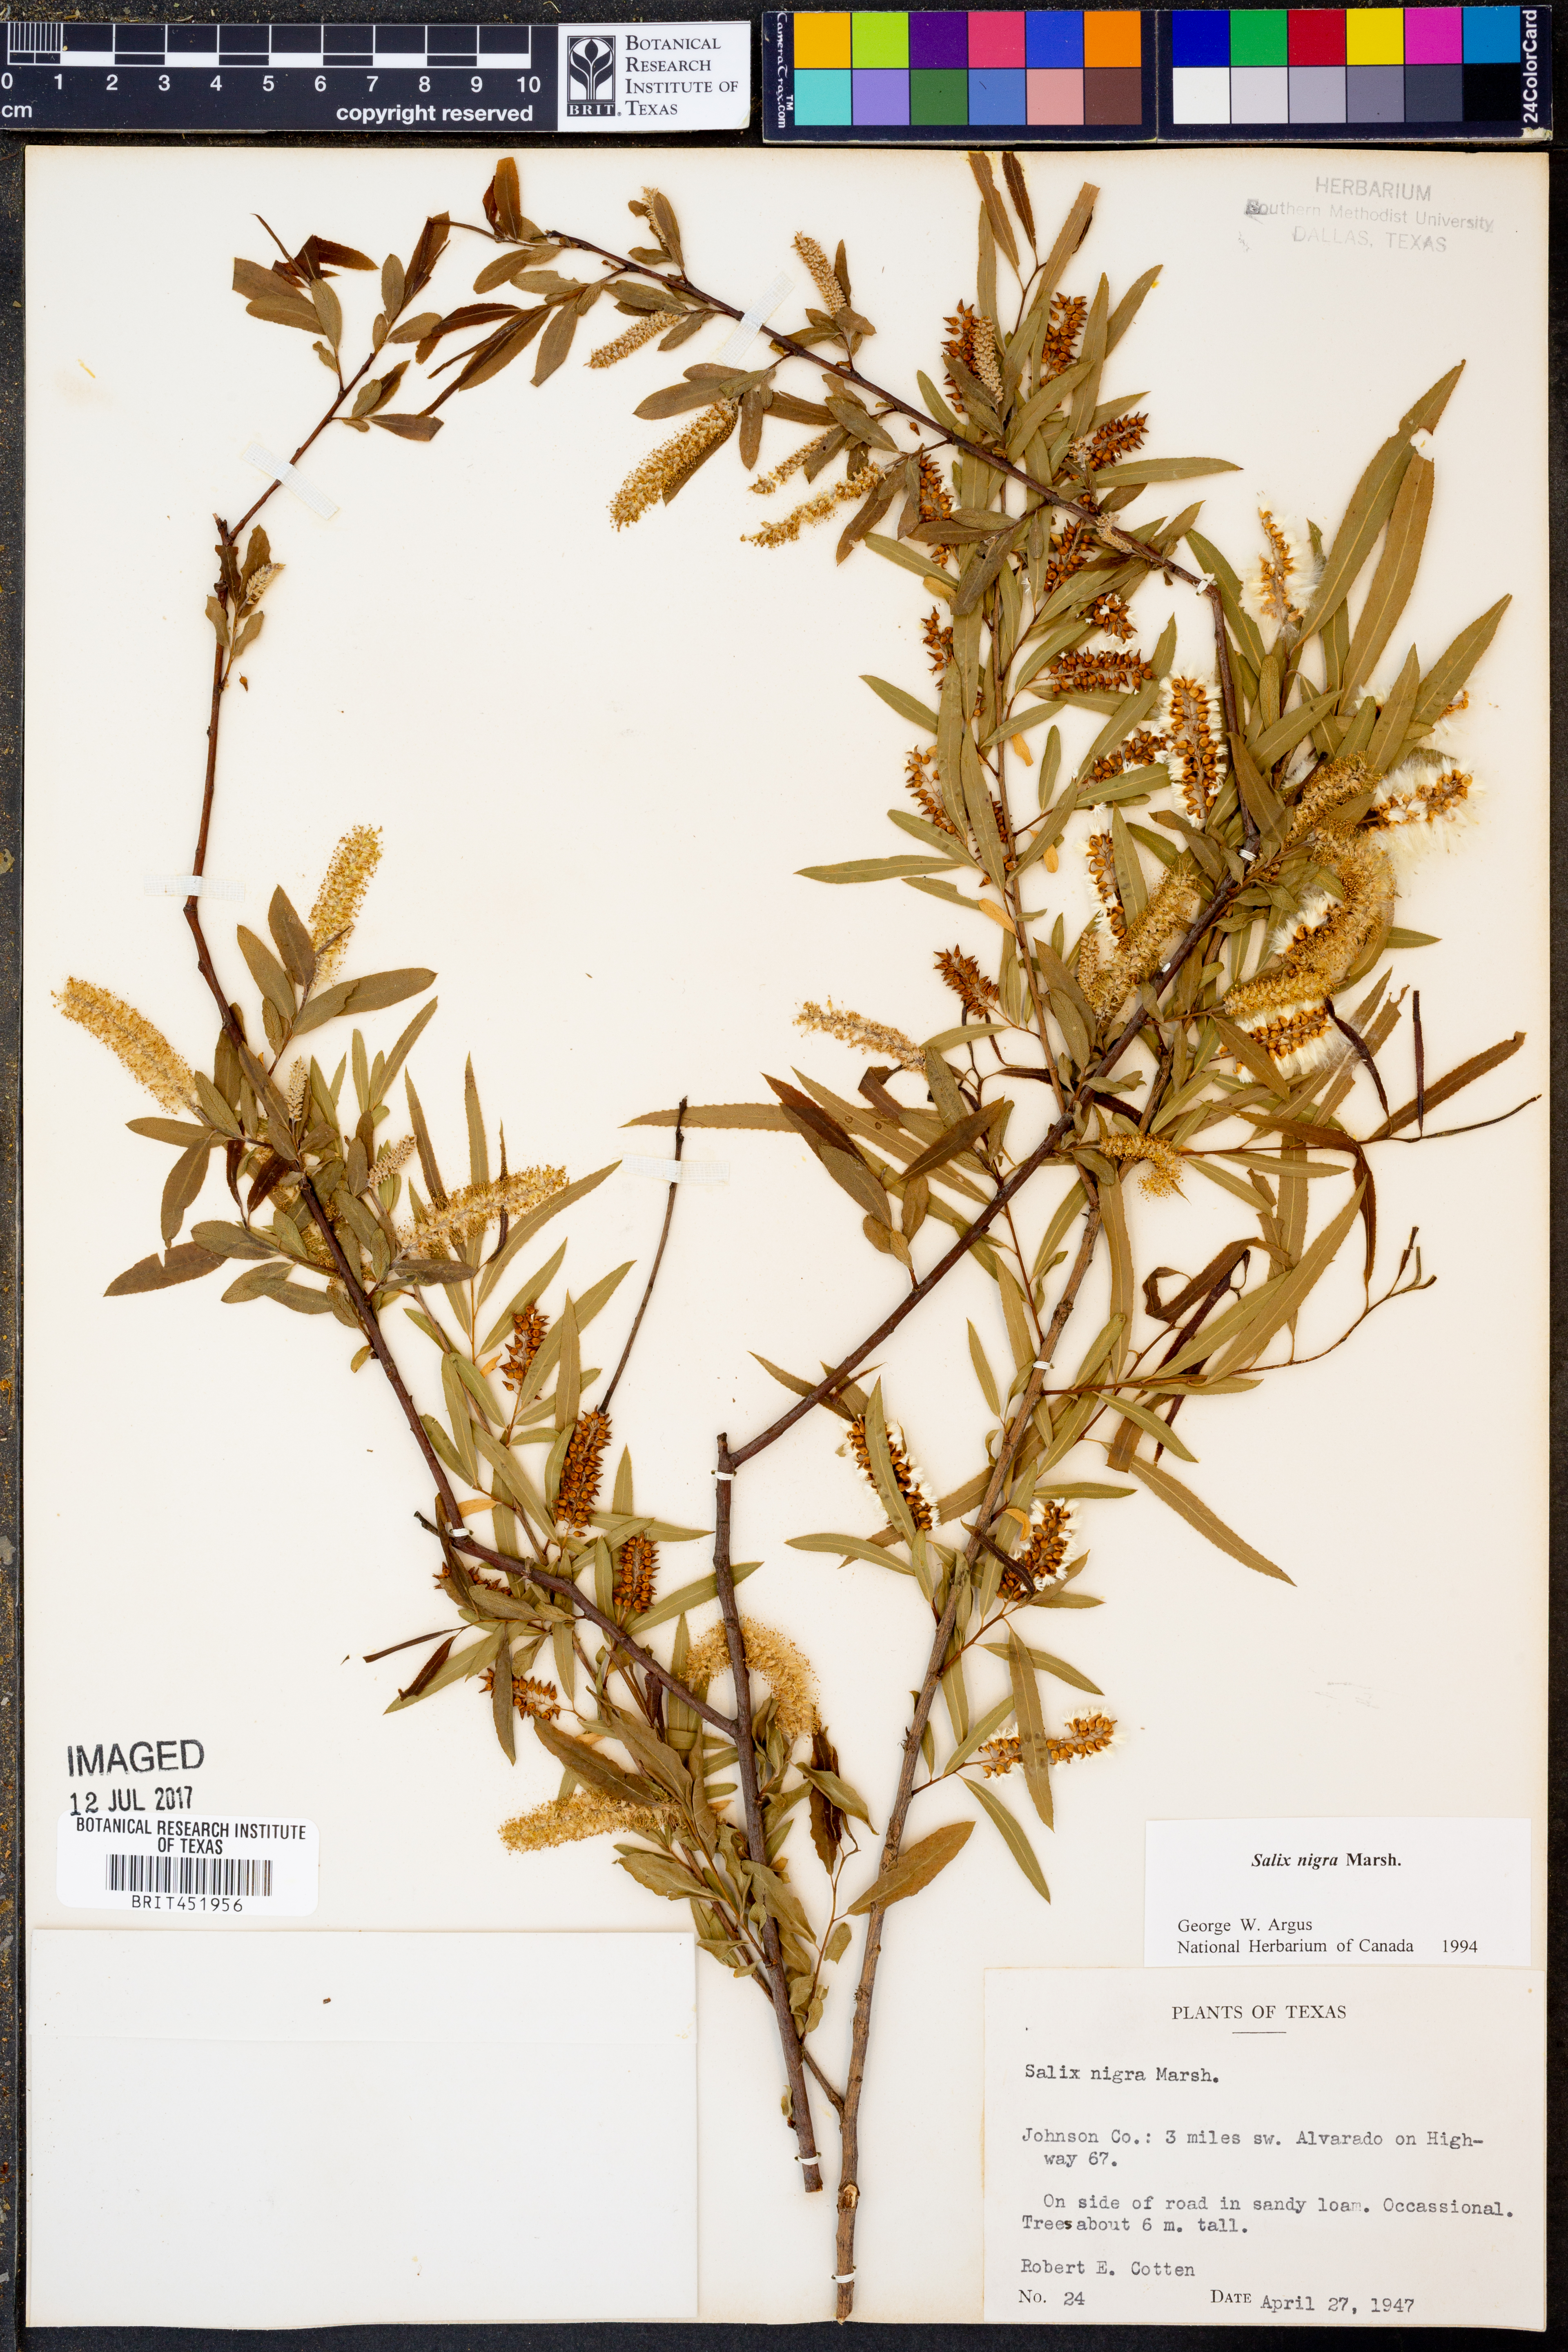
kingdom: Plantae
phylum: Tracheophyta
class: Magnoliopsida
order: Malpighiales
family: Salicaceae
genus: Salix
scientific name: Salix nigra
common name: Black willow
